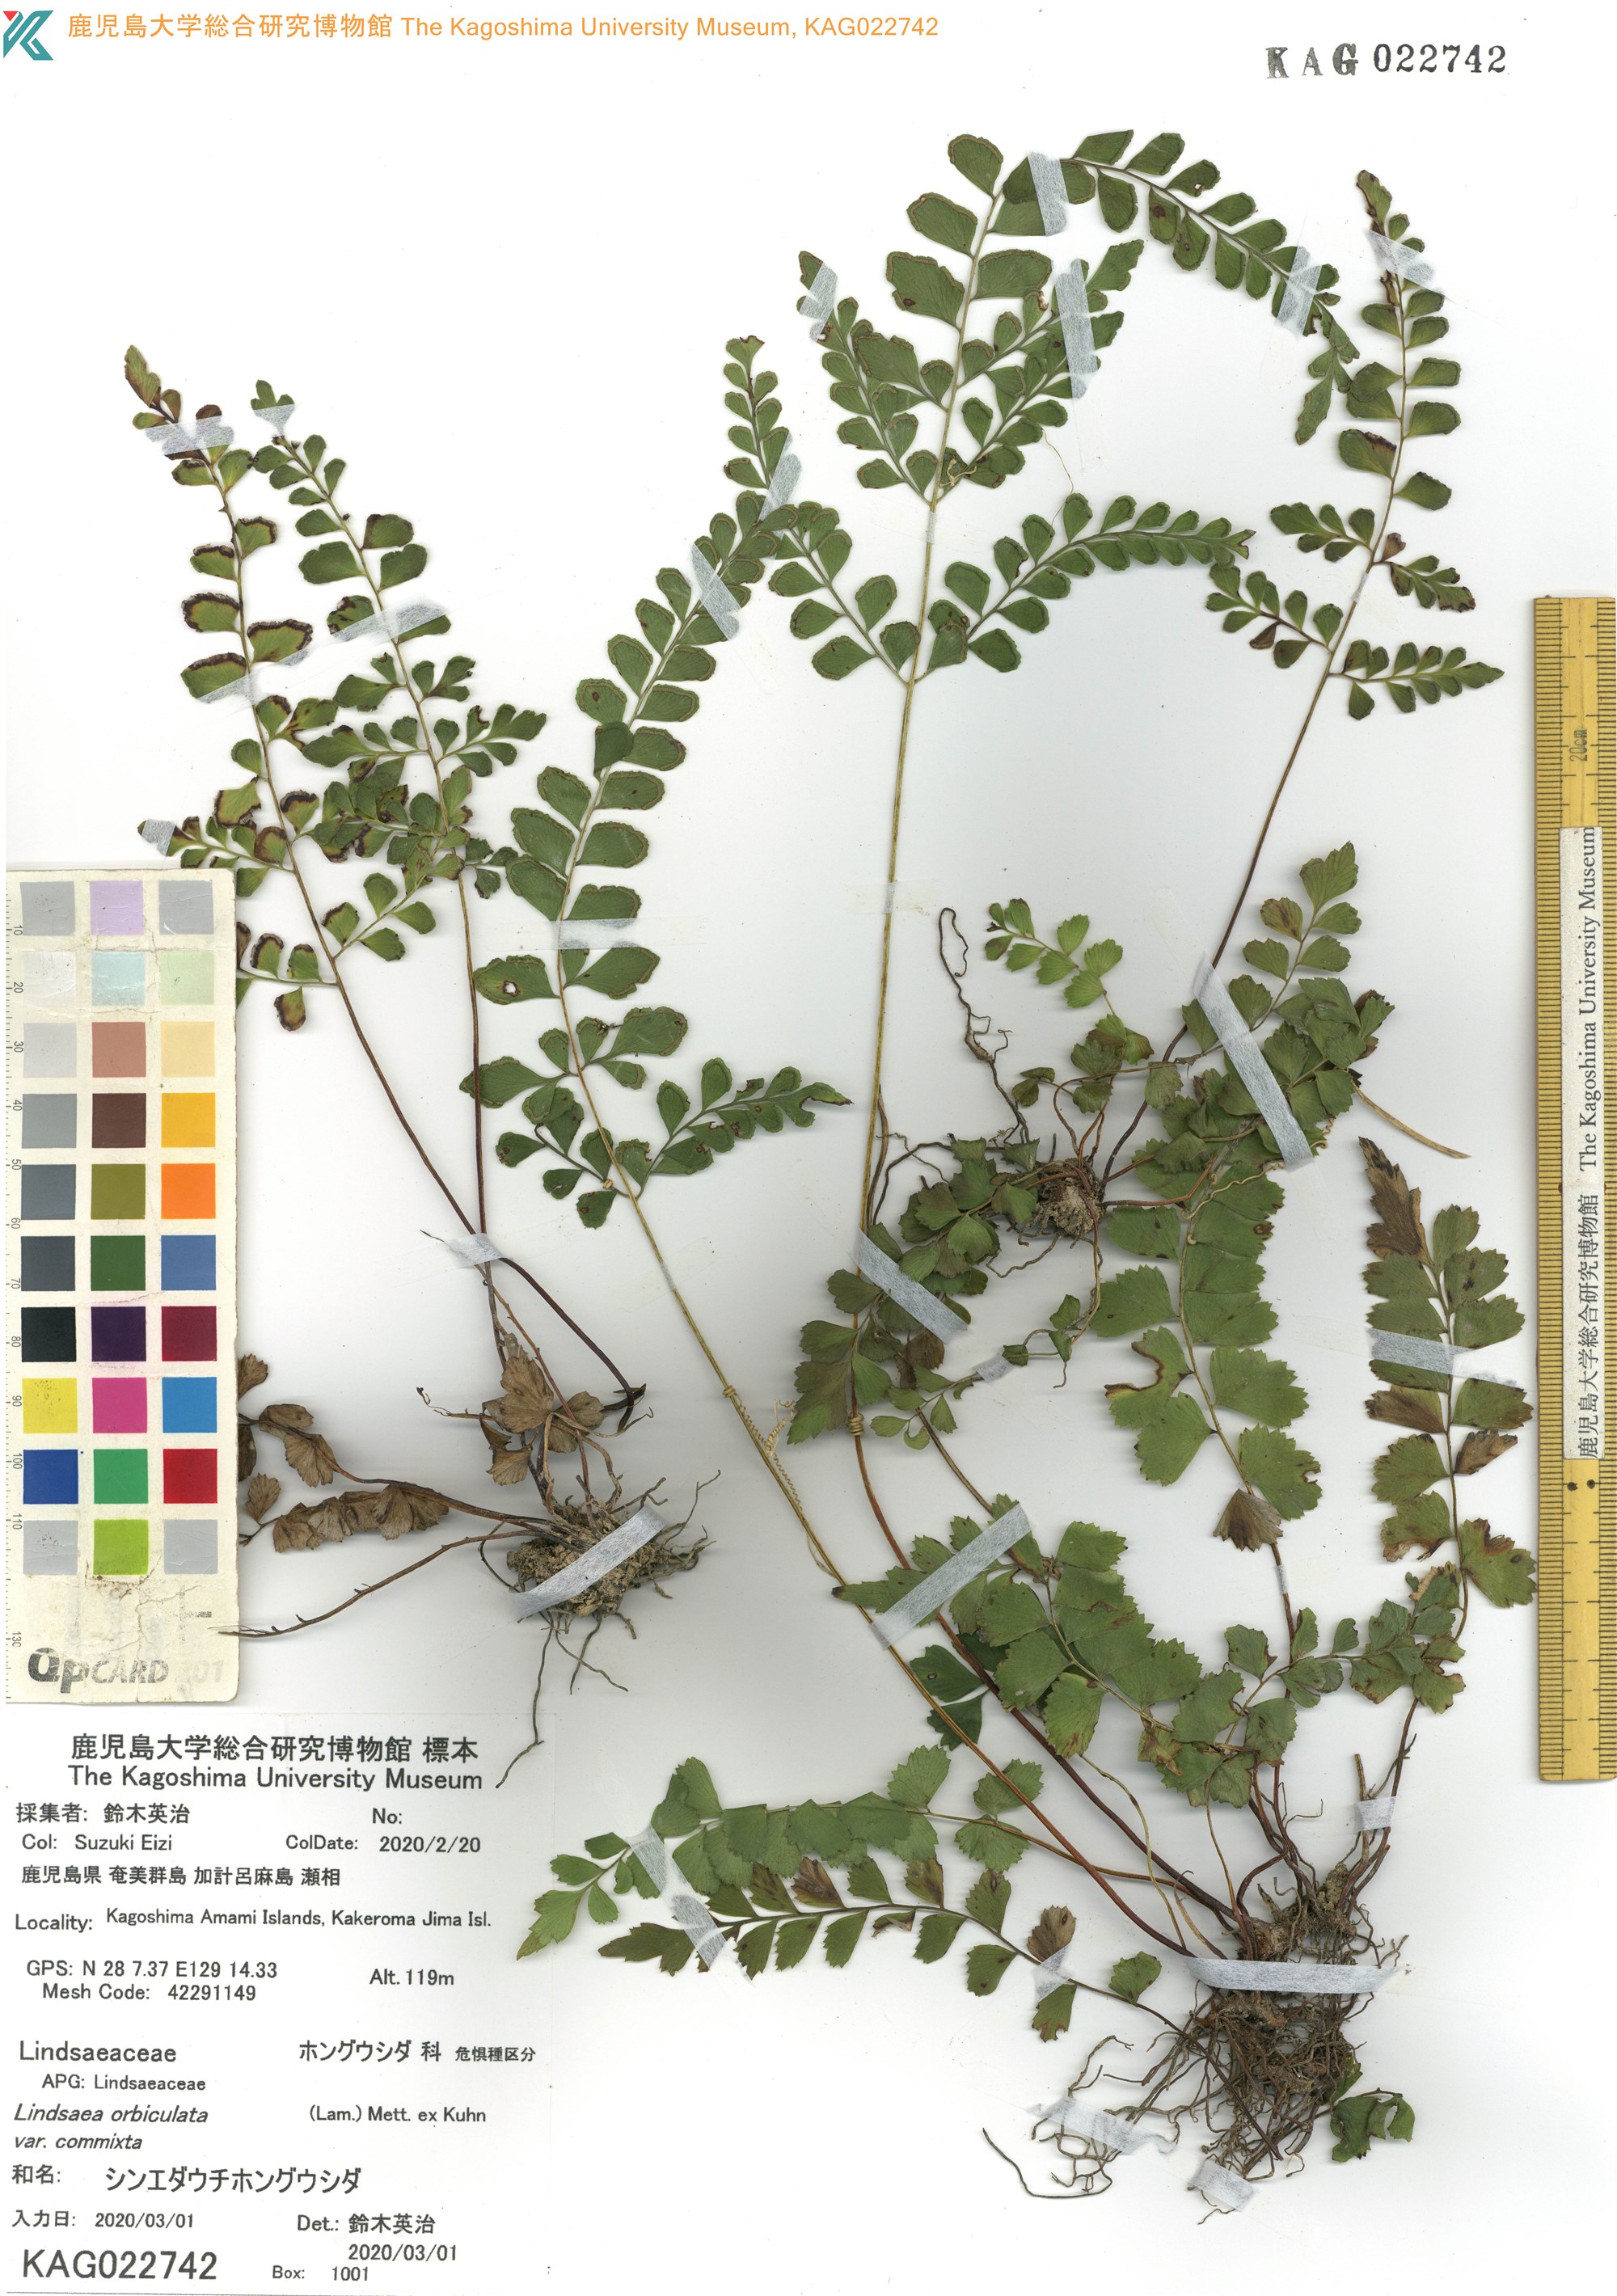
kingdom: Plantae
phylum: Tracheophyta
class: Polypodiopsida
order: Polypodiales
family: Lindsaeaceae
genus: Lindsaea
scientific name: Lindsaea bonii
